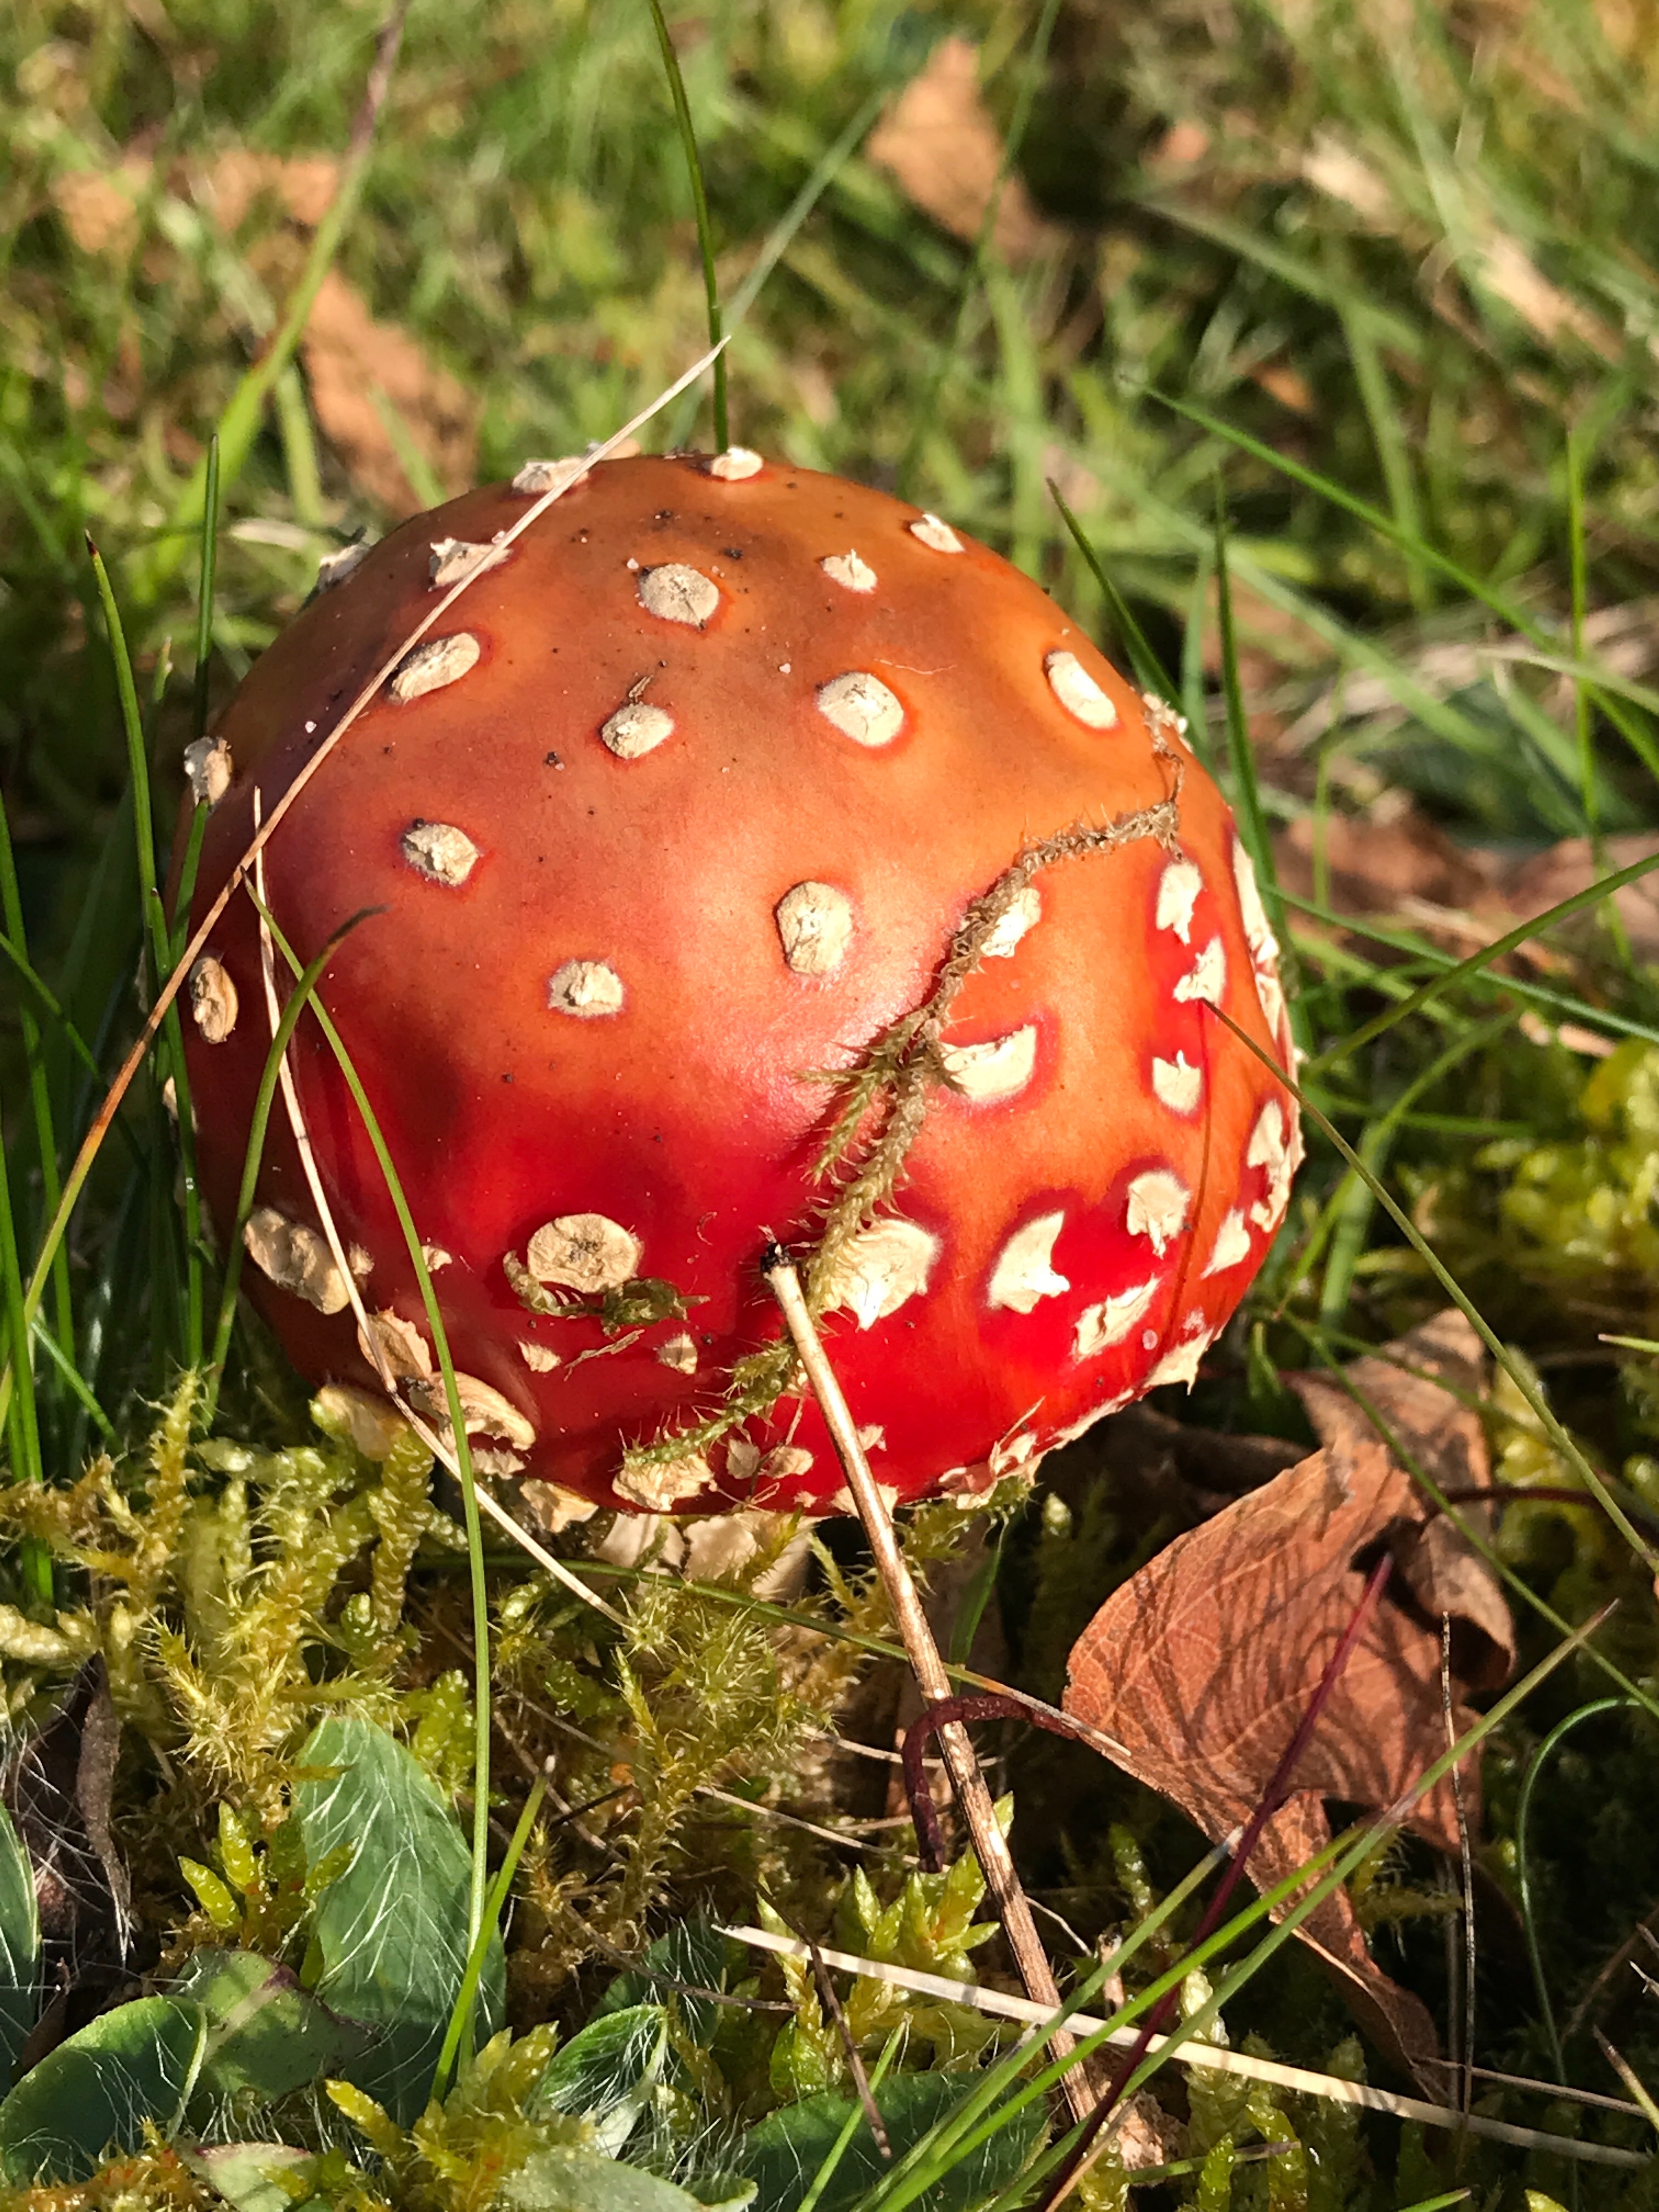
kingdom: Fungi
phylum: Basidiomycota
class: Agaricomycetes
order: Agaricales
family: Amanitaceae
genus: Amanita
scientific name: Amanita muscaria
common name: rød fluesvamp
